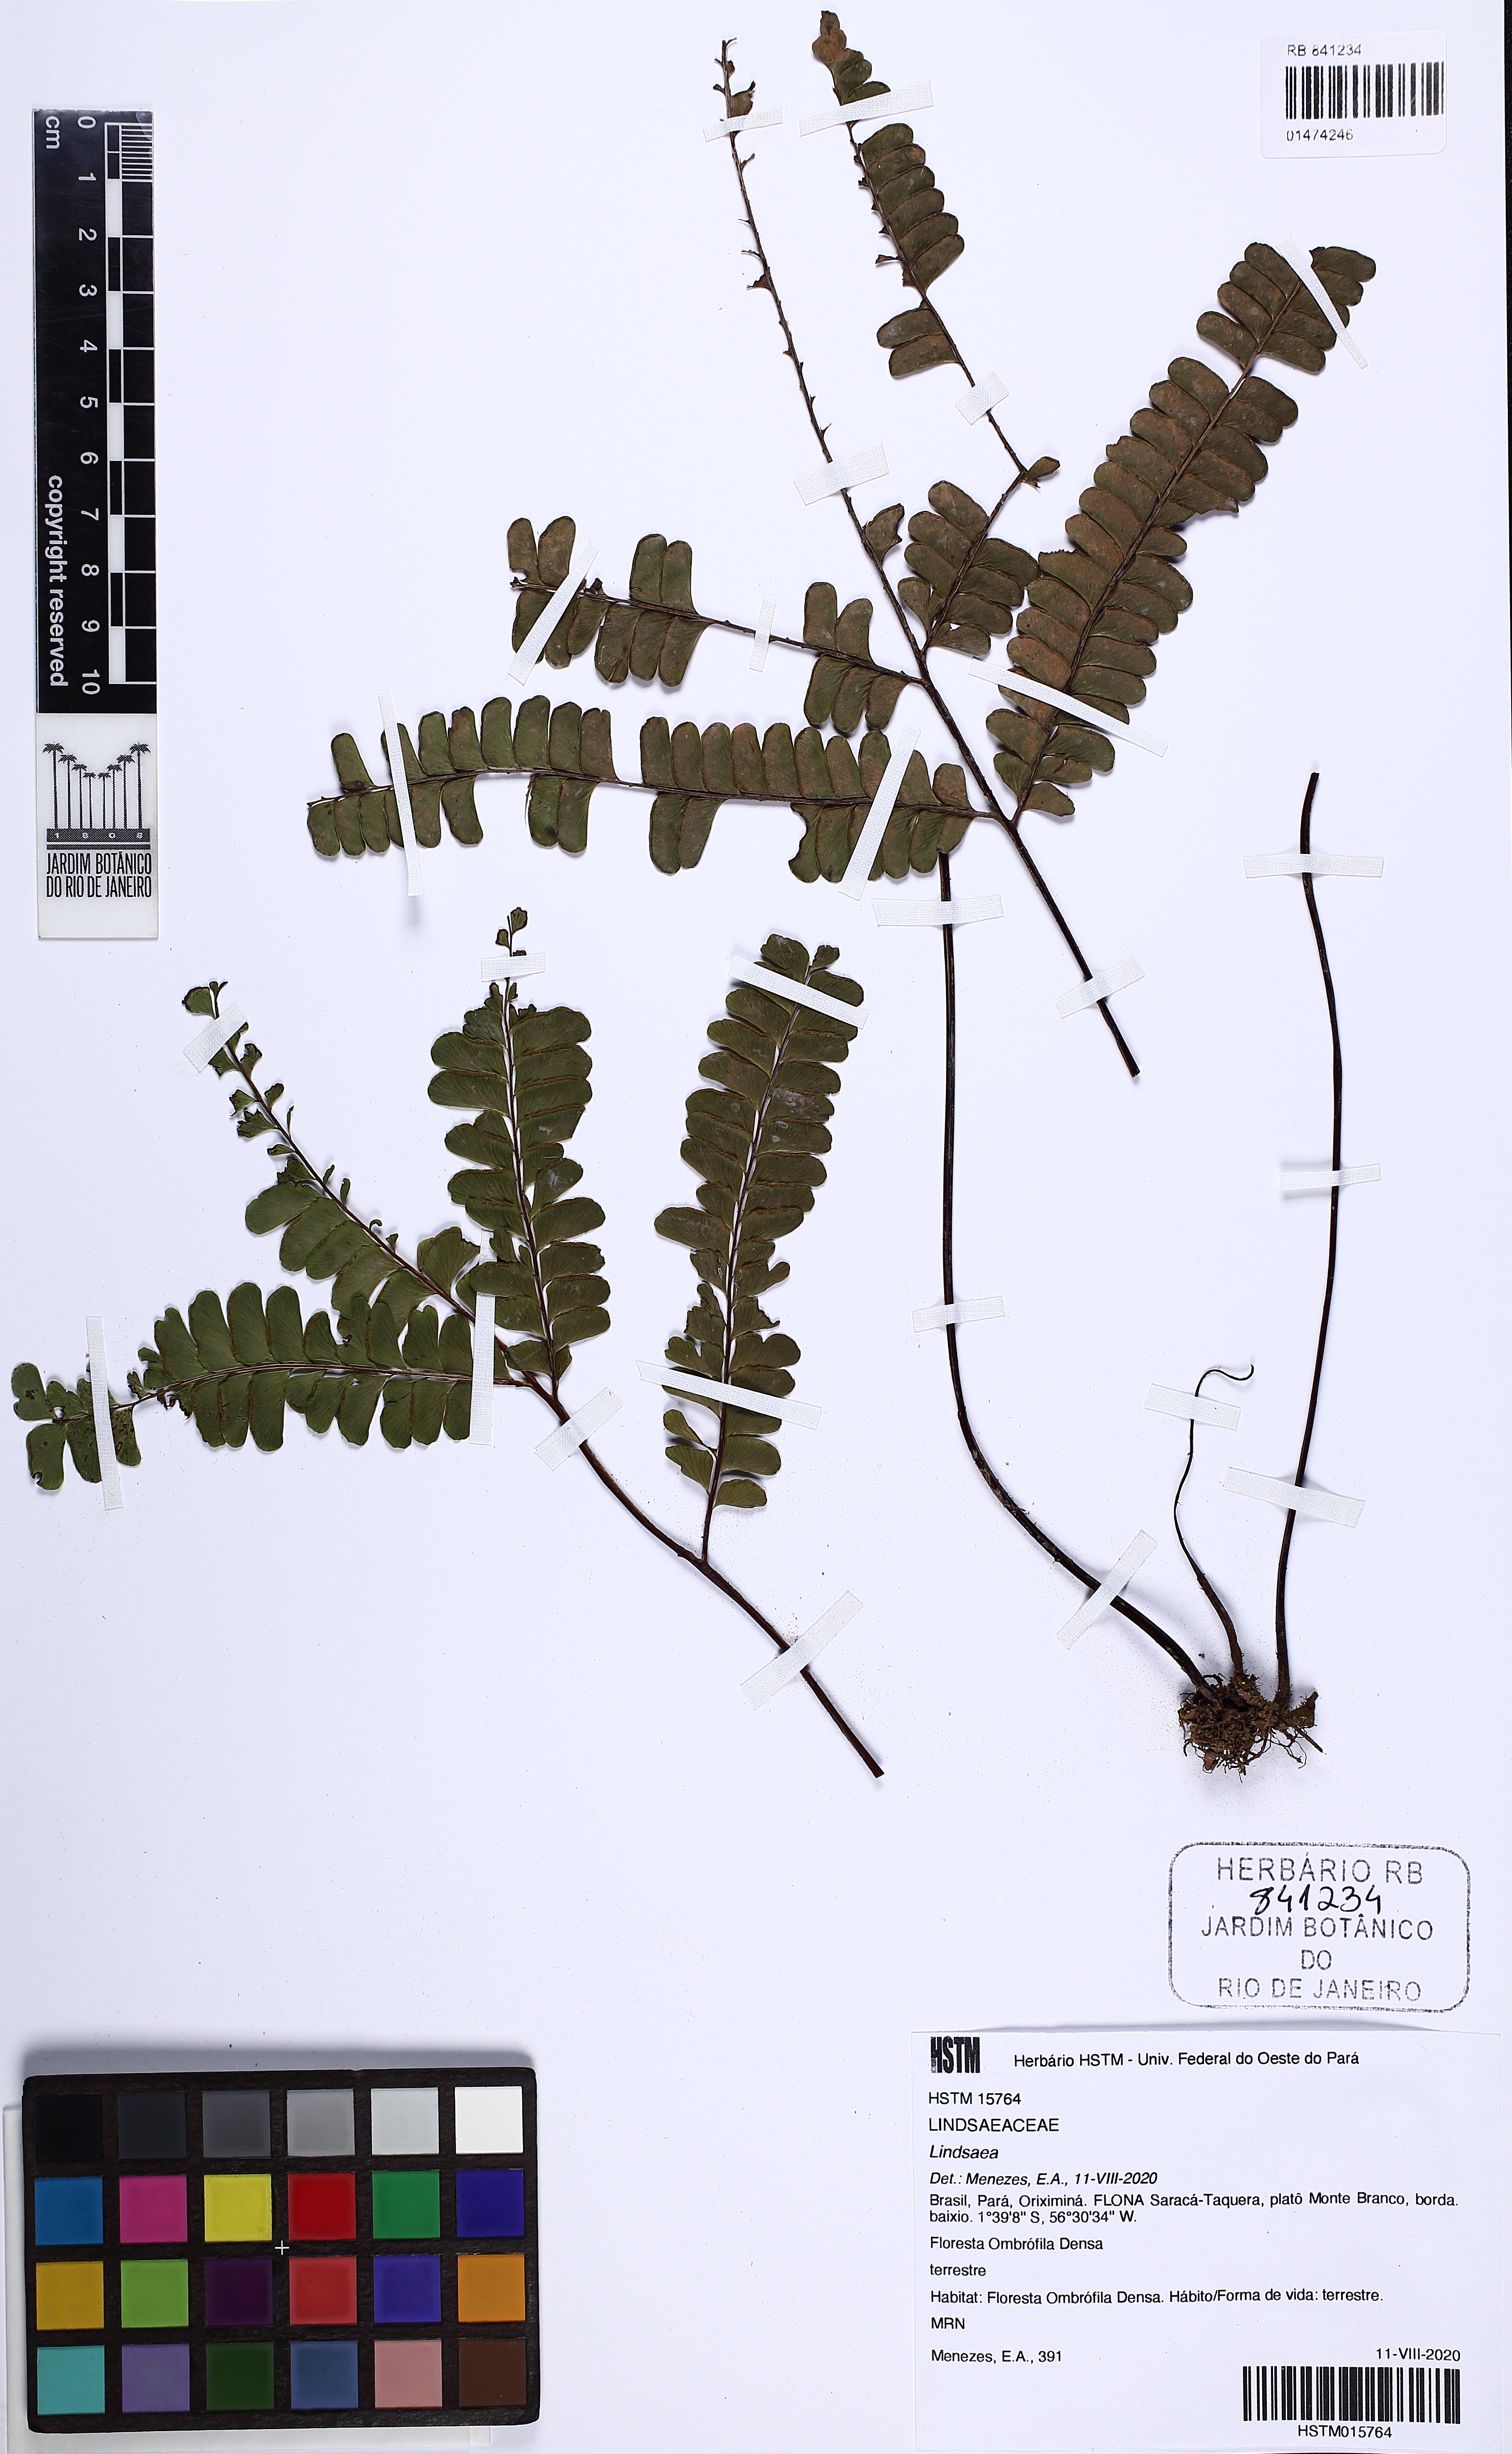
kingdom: Plantae
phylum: Tracheophyta
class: Polypodiopsida
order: Polypodiales
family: Lindsaeaceae
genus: Lindsaea
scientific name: Lindsaea
